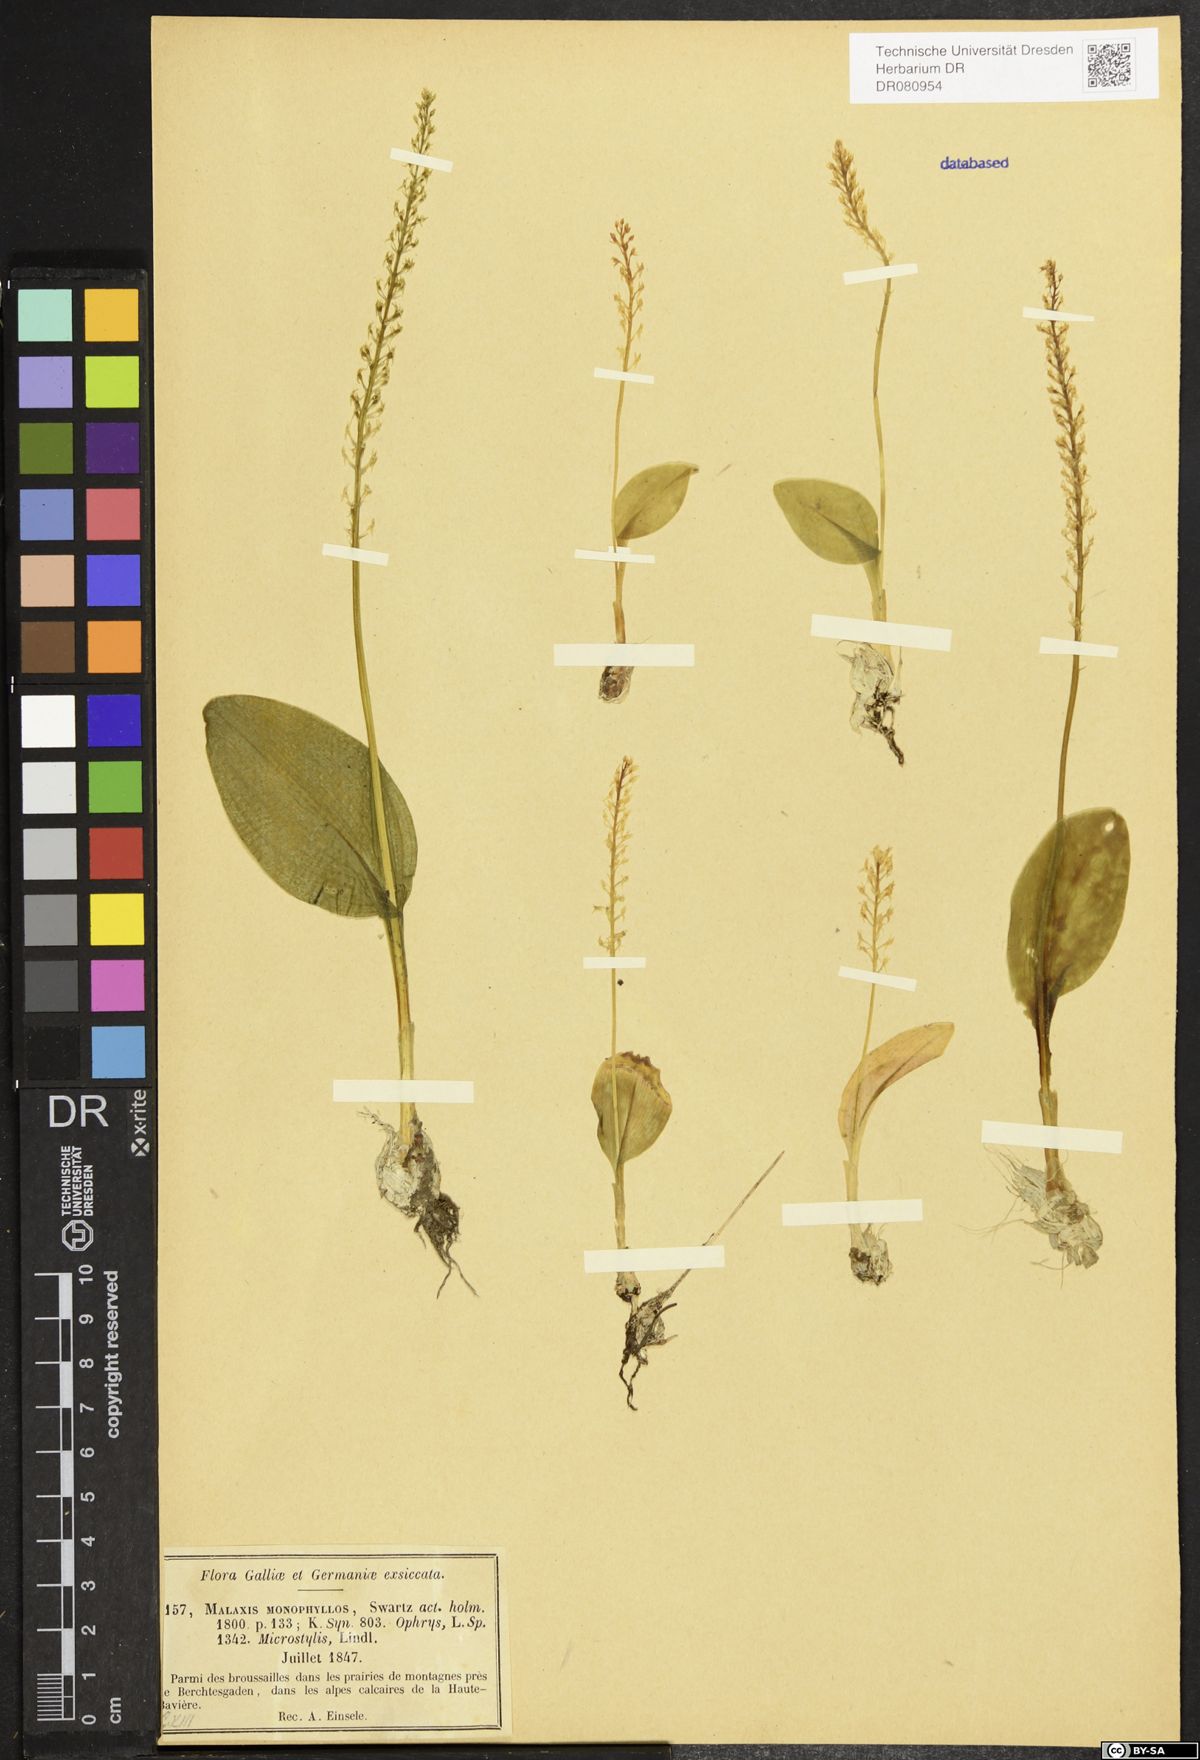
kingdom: Plantae
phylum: Tracheophyta
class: Liliopsida
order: Asparagales
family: Orchidaceae
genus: Malaxis
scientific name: Malaxis monophyllos
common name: White adder's-mouth
